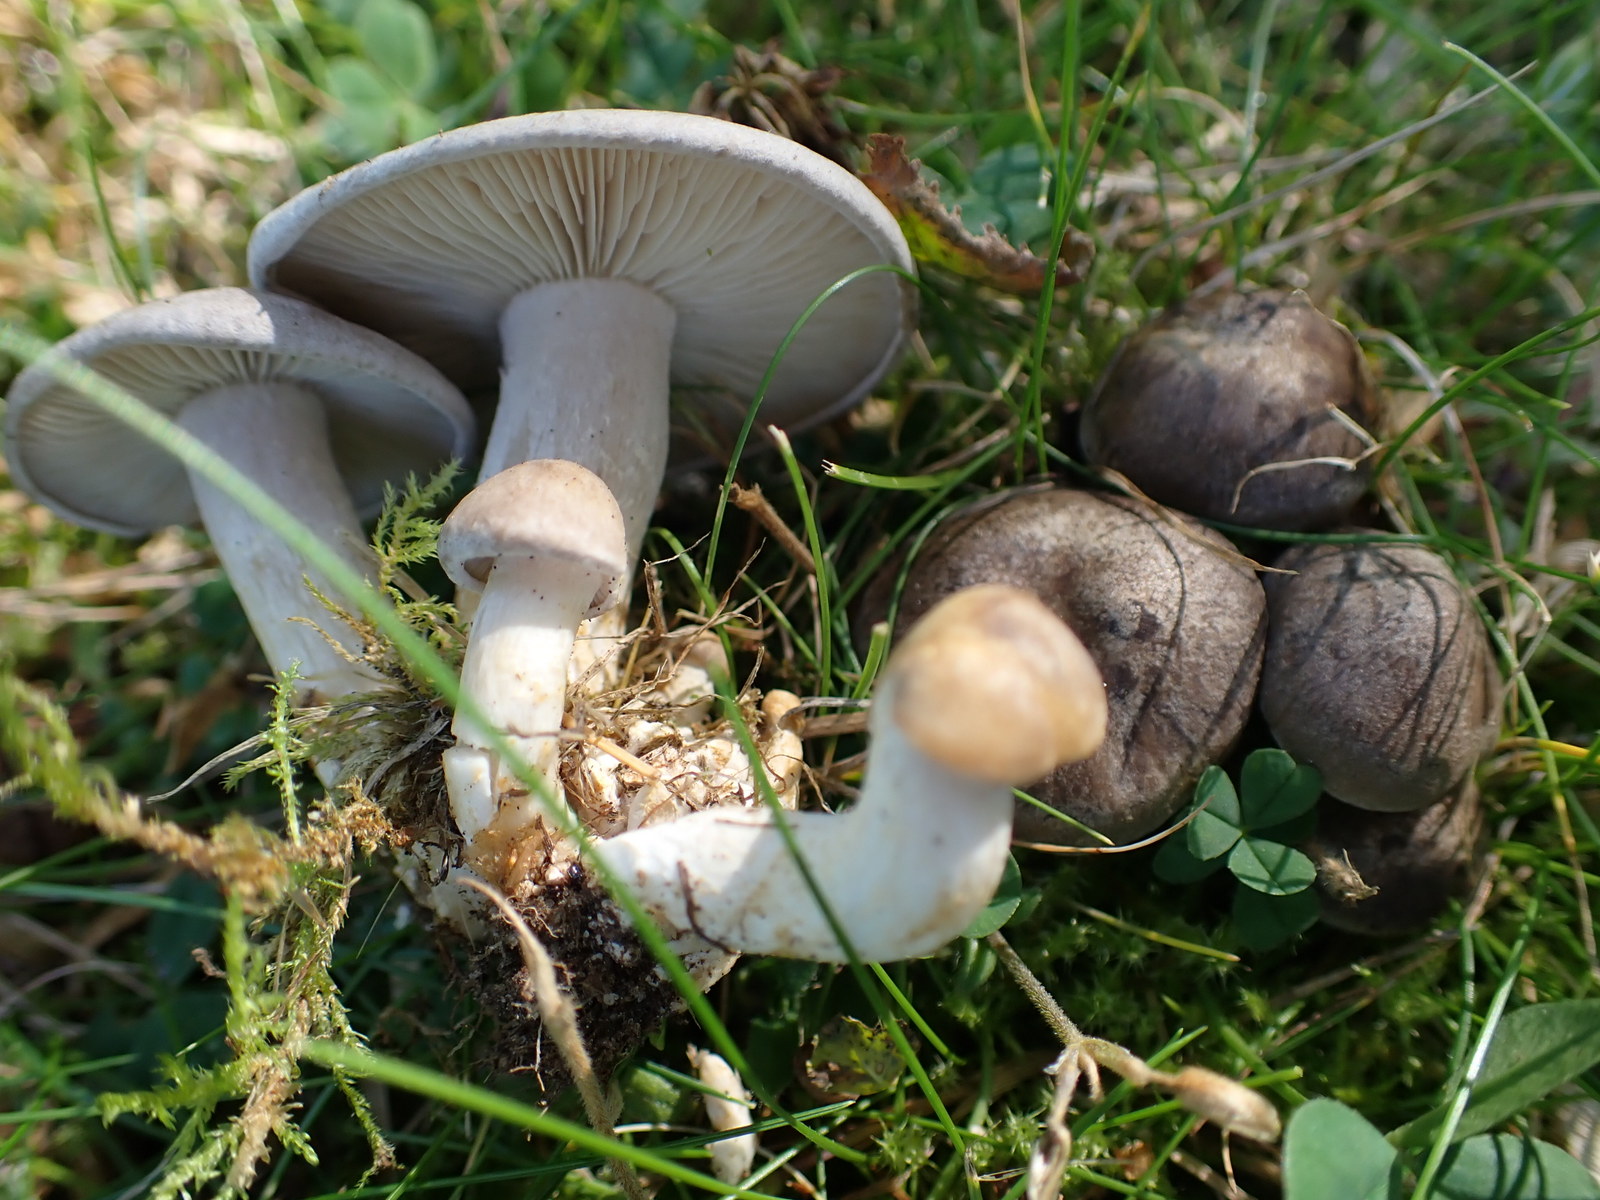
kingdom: Fungi
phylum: Basidiomycota
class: Agaricomycetes
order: Agaricales
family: Lyophyllaceae
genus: Lyophyllum
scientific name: Lyophyllum
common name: gråblad
